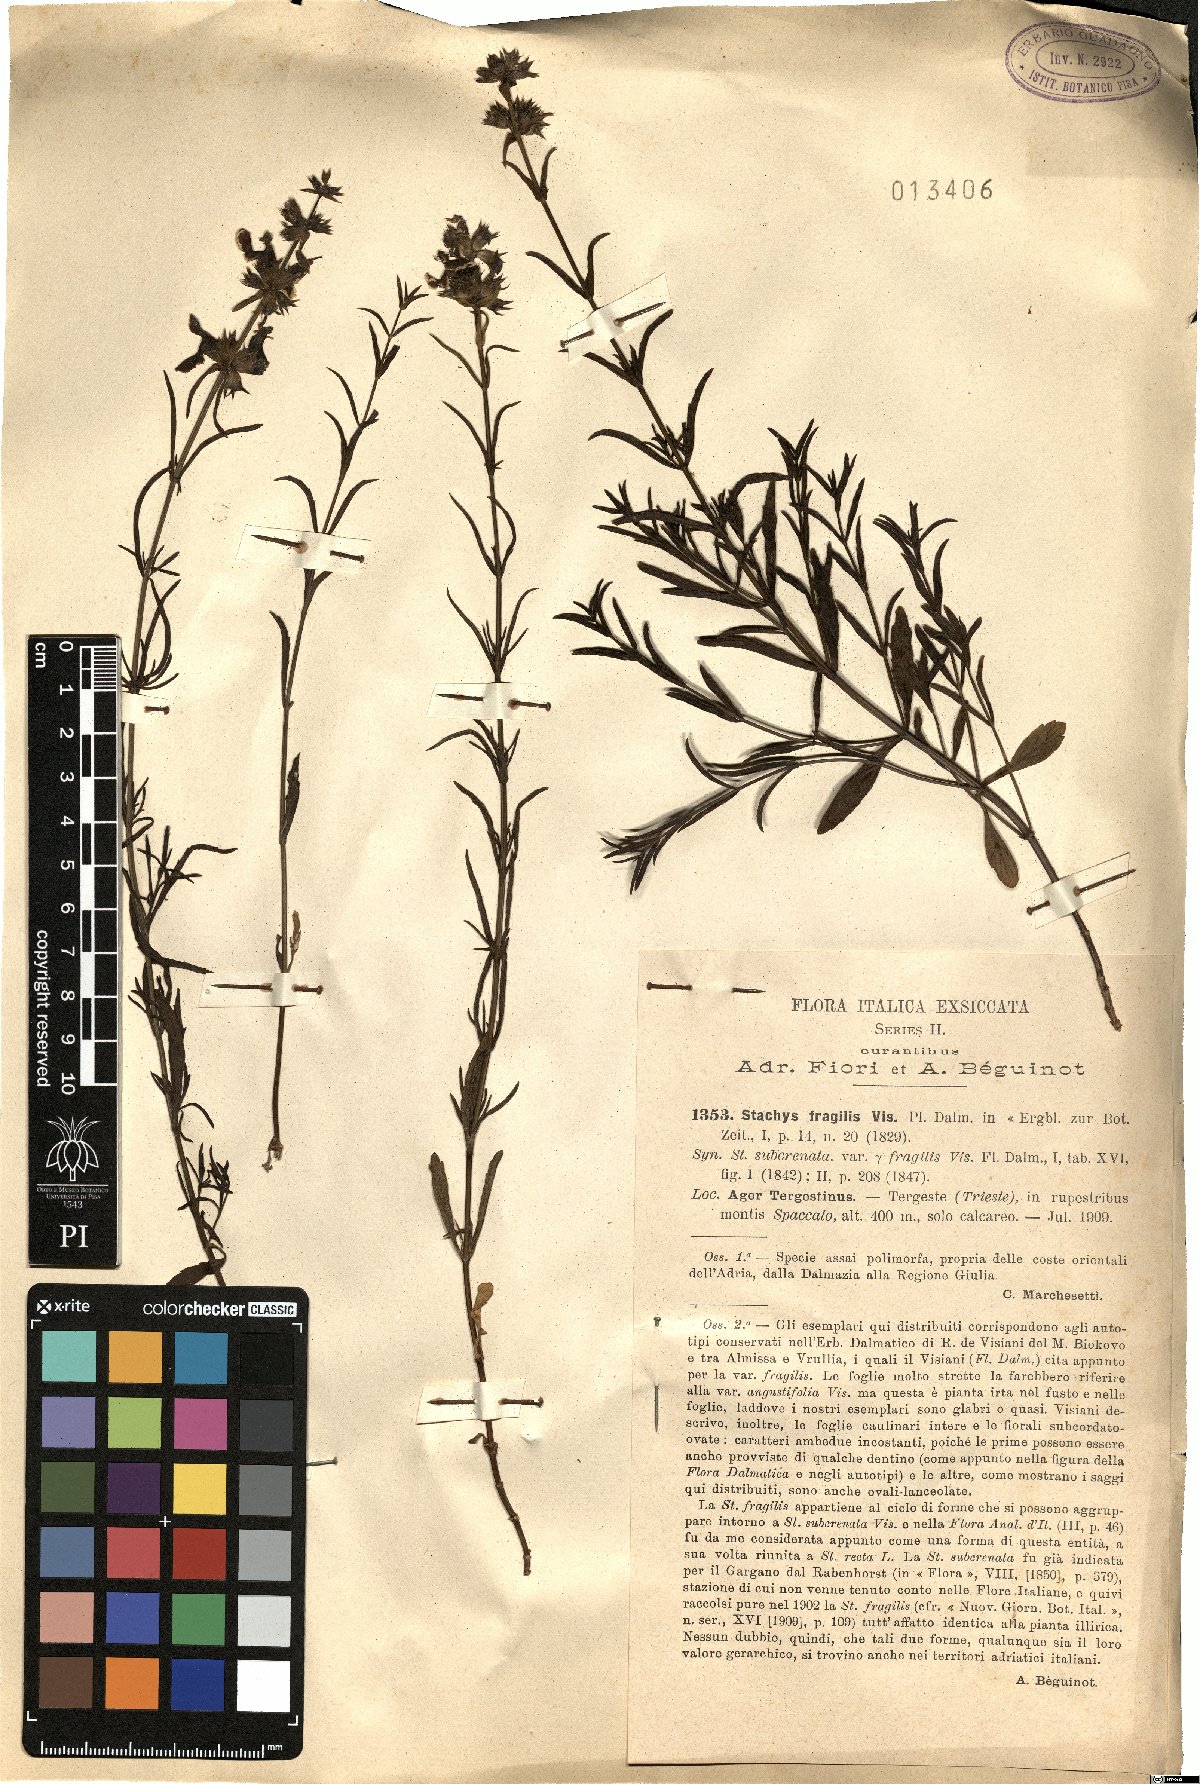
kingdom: Plantae
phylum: Tracheophyta
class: Magnoliopsida
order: Lamiales
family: Lamiaceae
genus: Stachys
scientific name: Stachys recta
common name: Perennial yellow-woundwort
